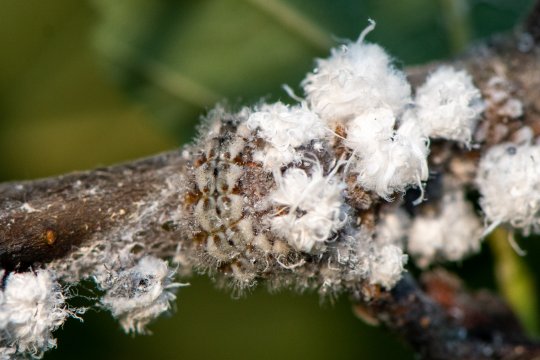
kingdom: Animalia
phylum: Arthropoda
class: Insecta
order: Lepidoptera
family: Lycaenidae
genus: Feniseca
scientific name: Feniseca tarquinius
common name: Harvester
